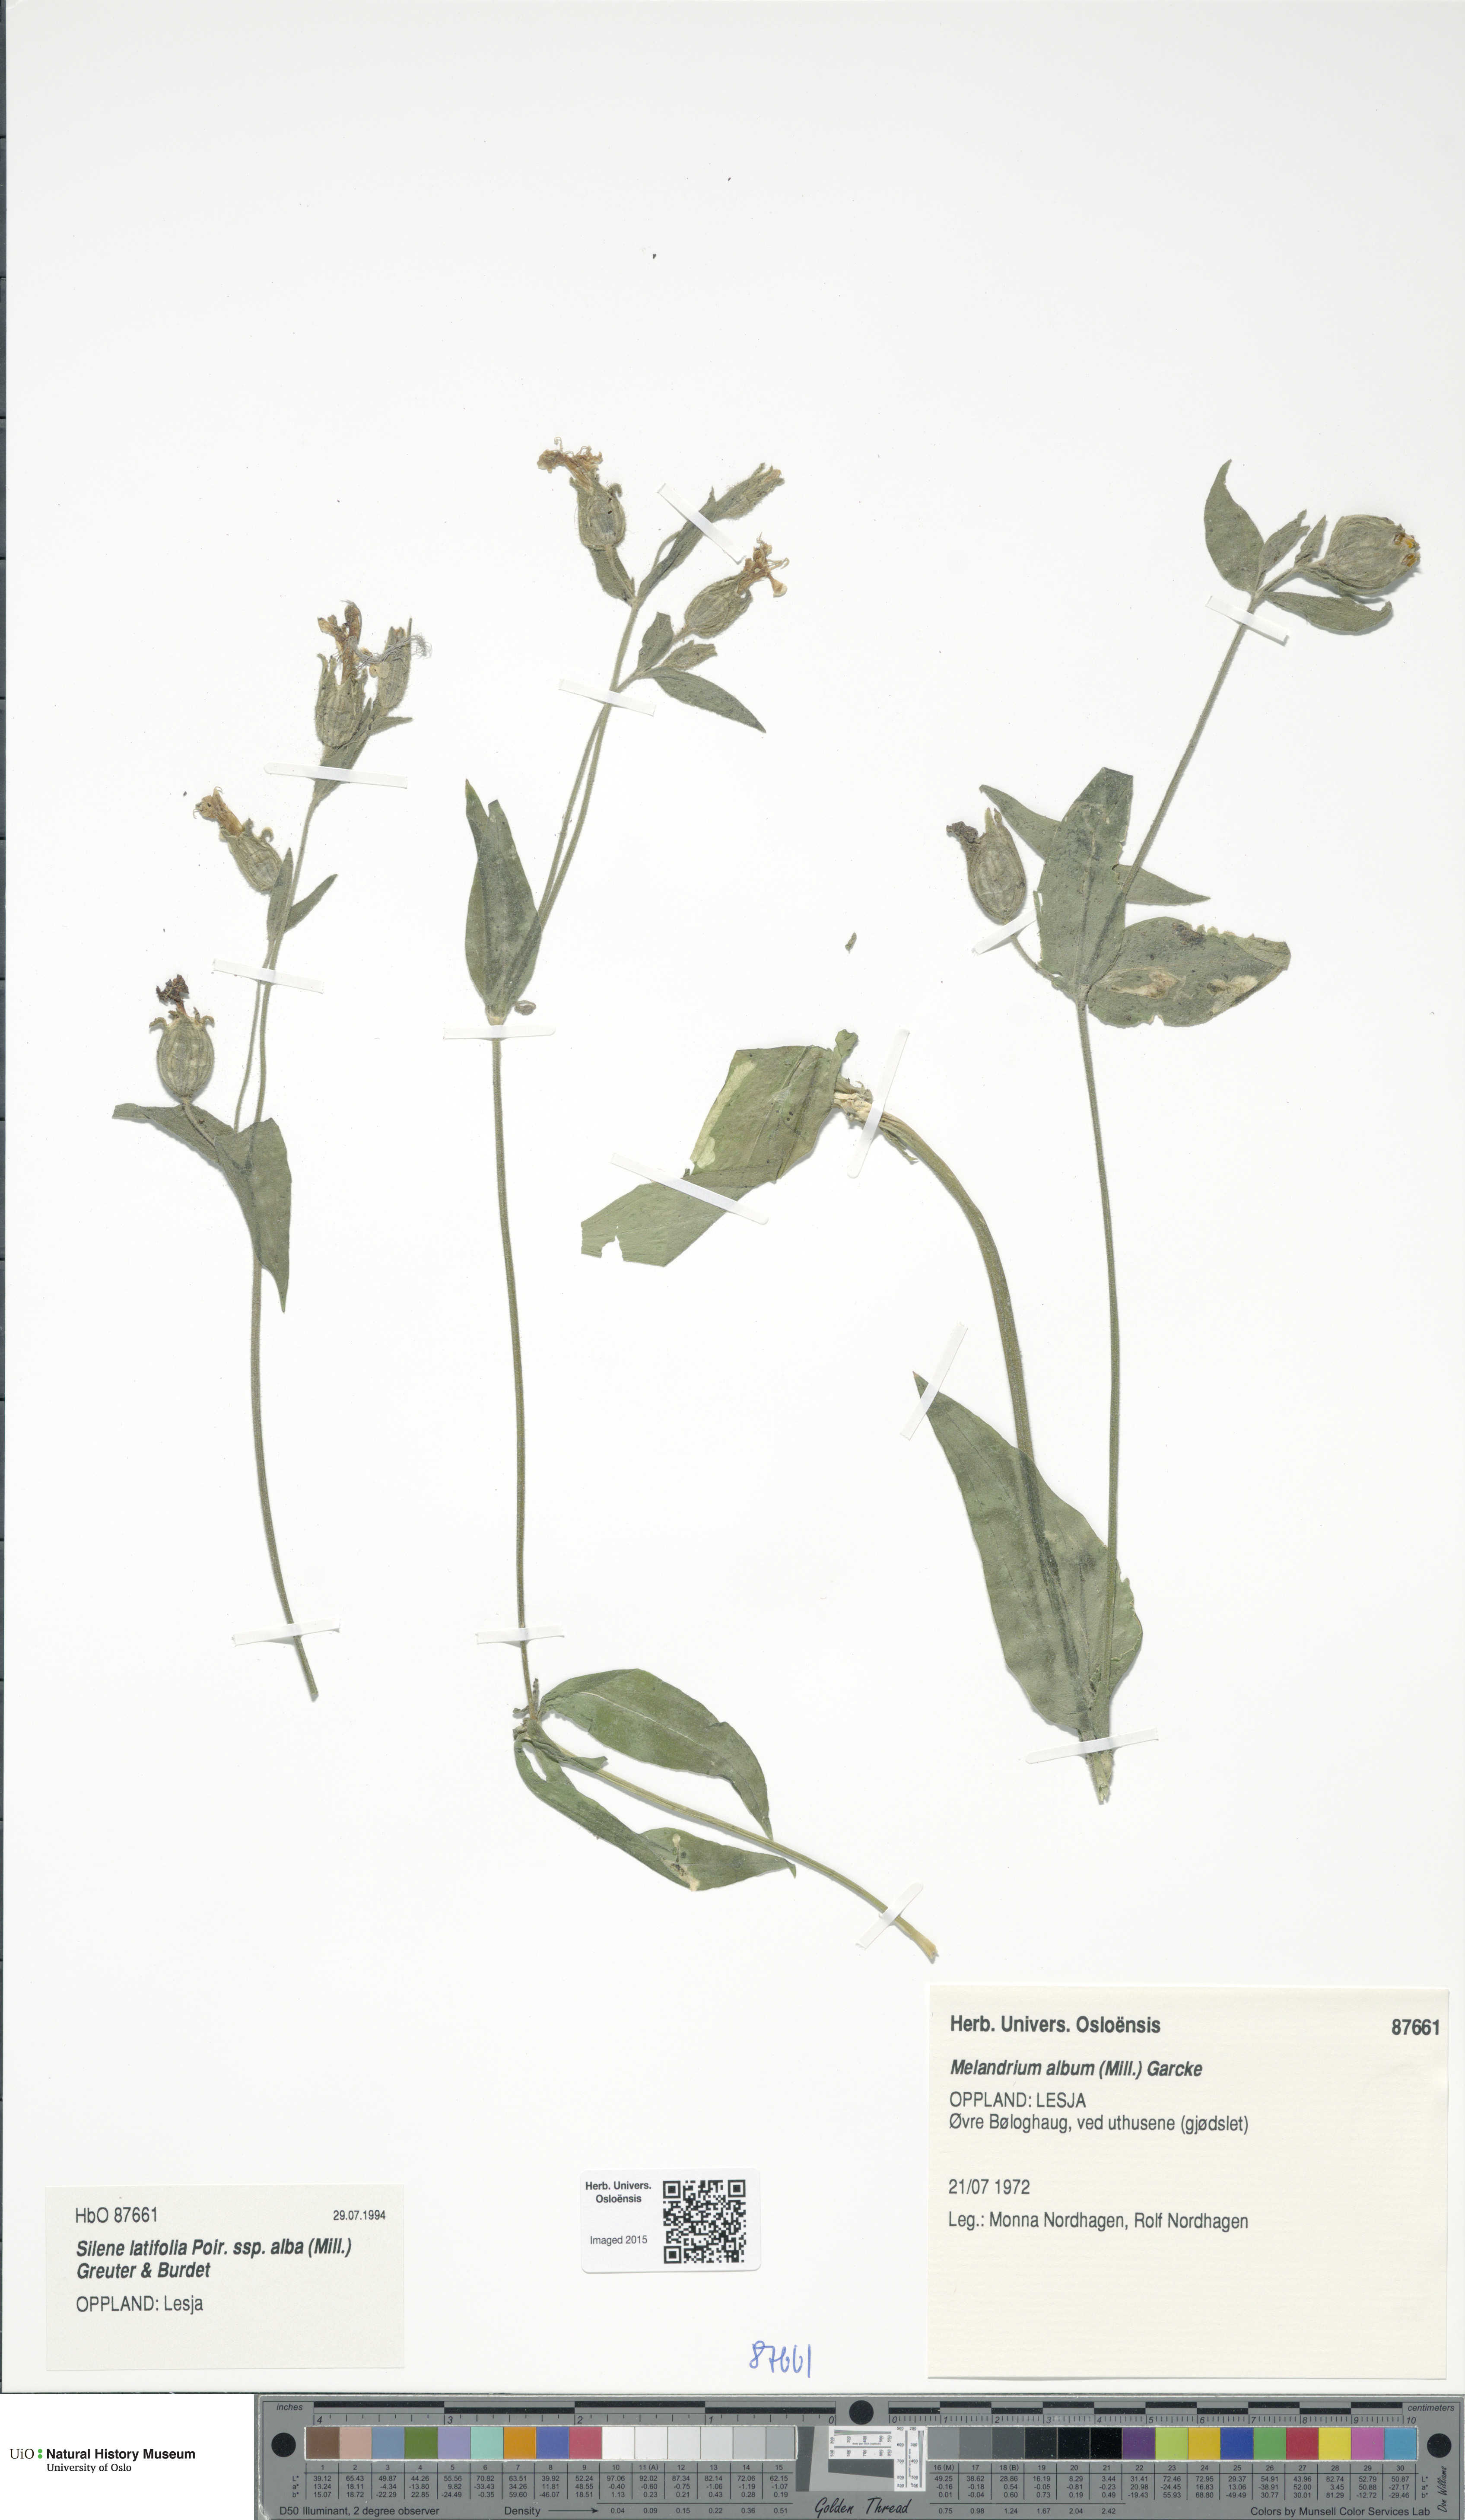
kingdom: Plantae
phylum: Tracheophyta
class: Magnoliopsida
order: Caryophyllales
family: Caryophyllaceae
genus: Silene
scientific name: Silene latifolia
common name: White campion
